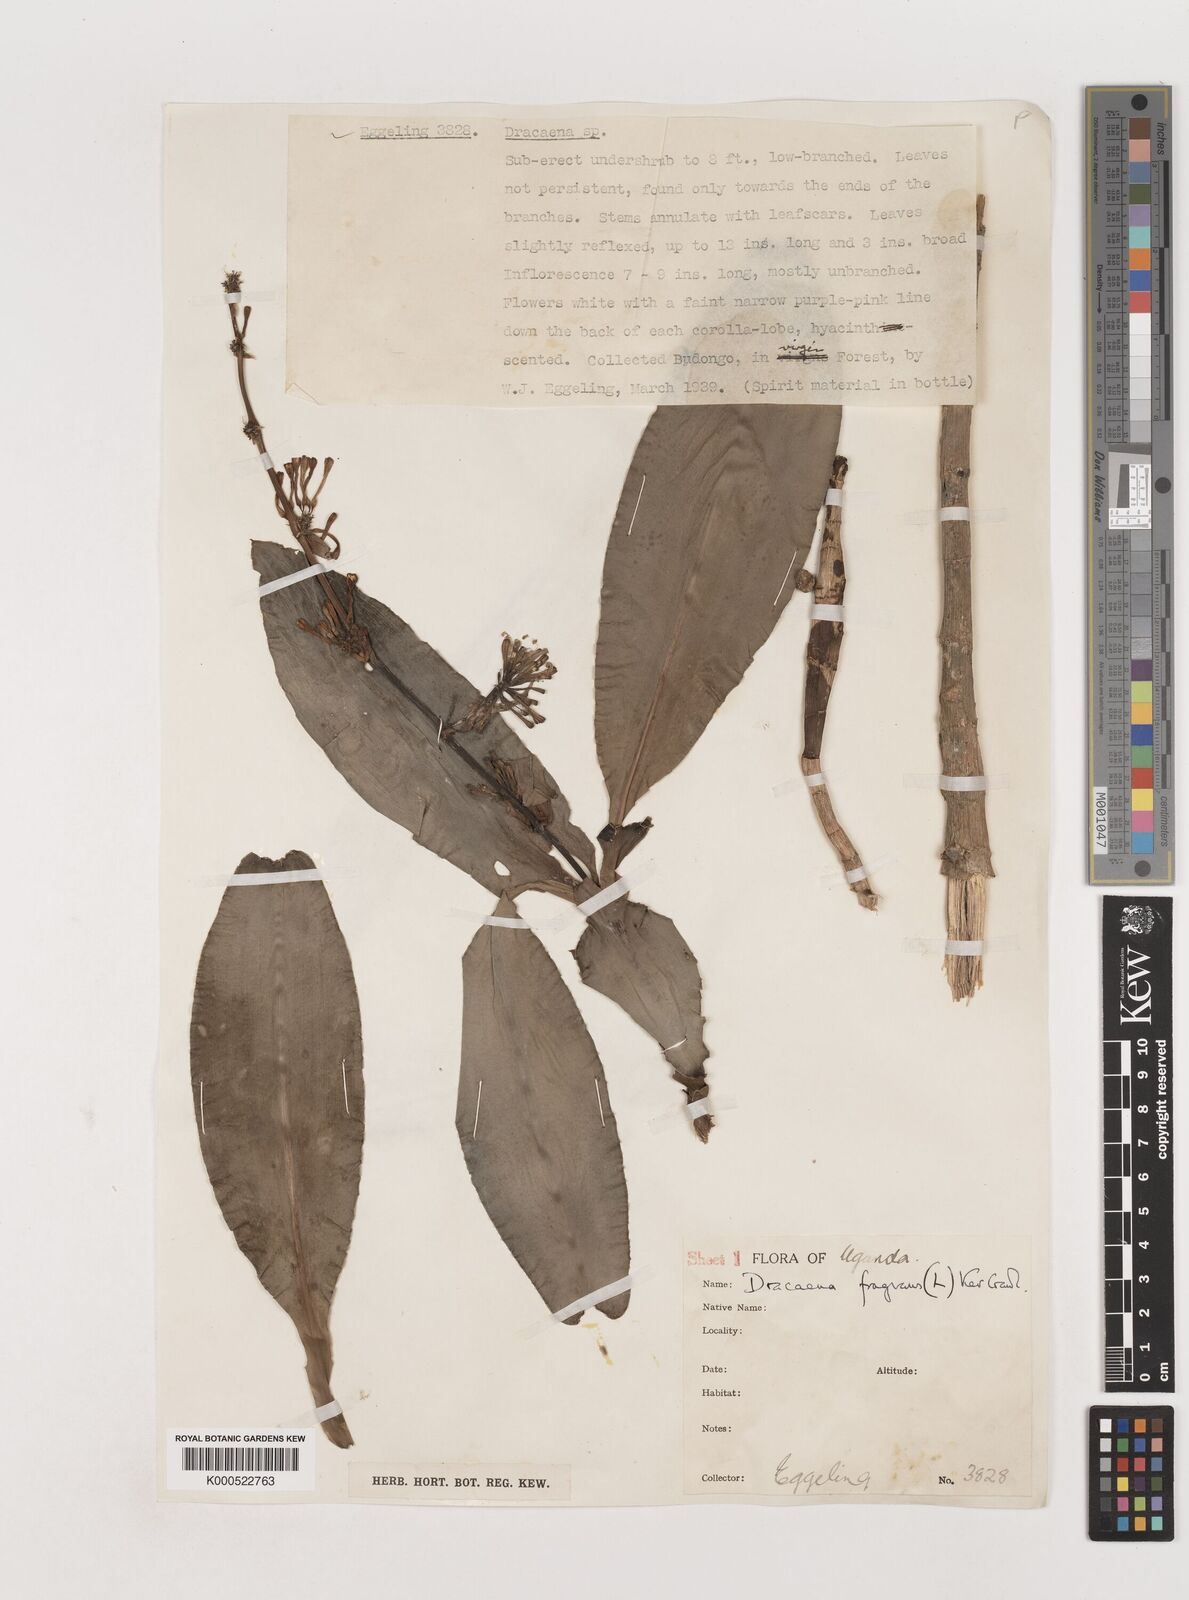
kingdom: Plantae
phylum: Tracheophyta
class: Liliopsida
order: Asparagales
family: Asparagaceae
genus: Dracaena
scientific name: Dracaena fragrans
